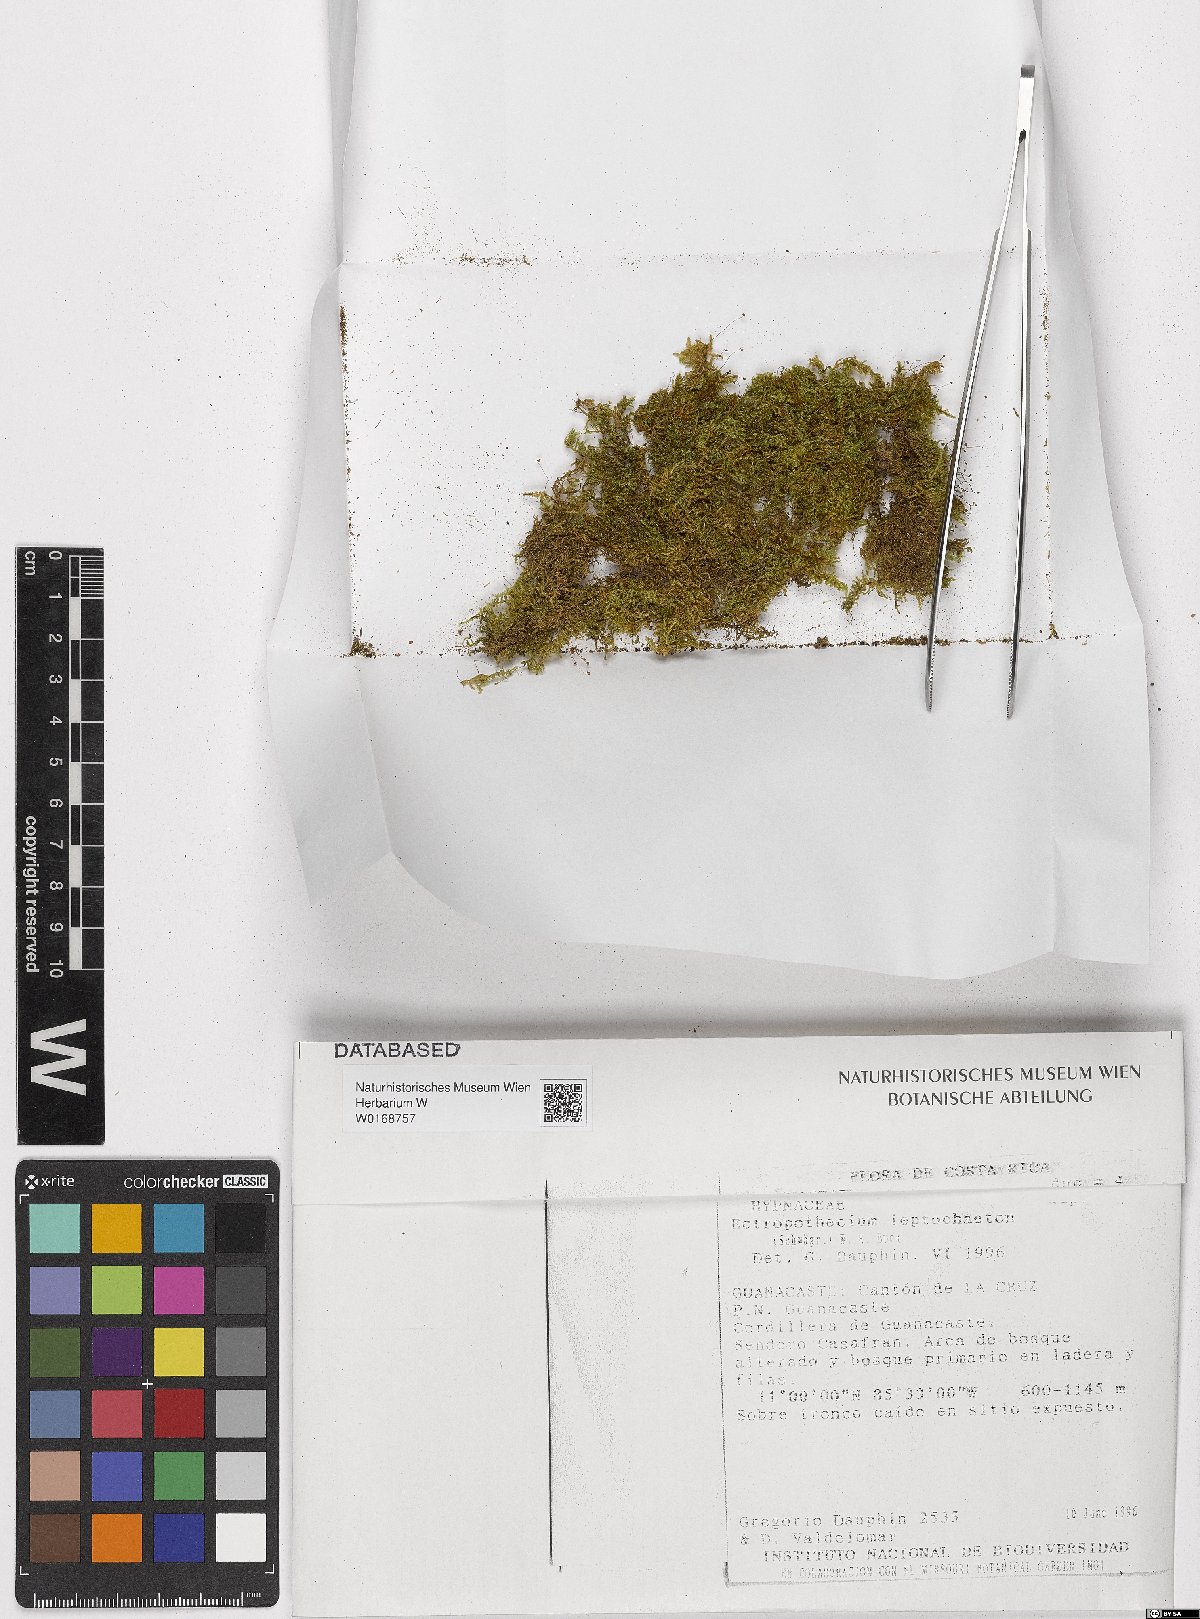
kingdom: Plantae
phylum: Bryophyta
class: Bryopsida
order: Hypnales
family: Hypnaceae
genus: Ectropothecium
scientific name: Ectropothecium leptochaeton
